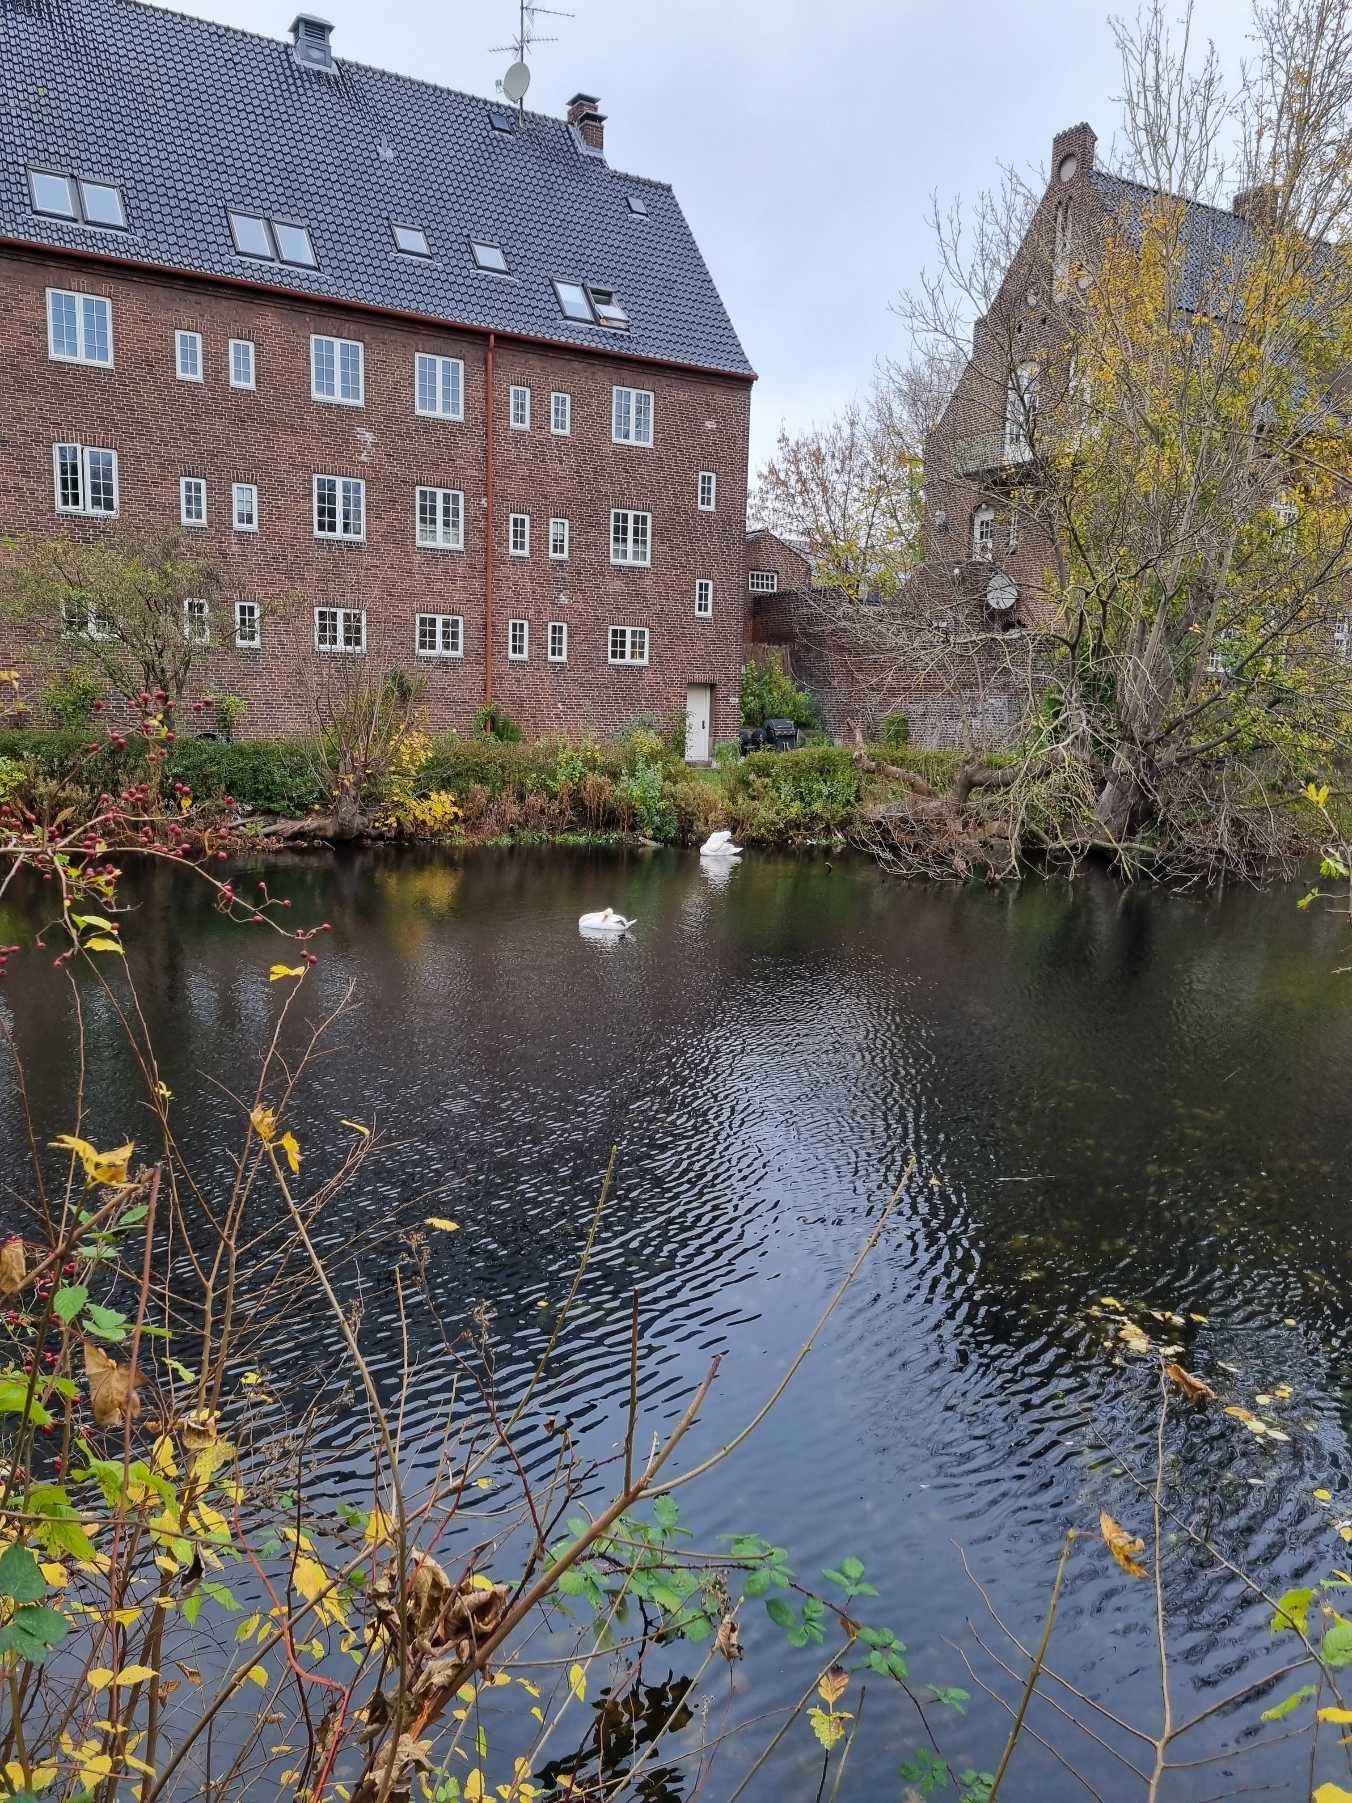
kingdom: Animalia
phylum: Chordata
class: Aves
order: Anseriformes
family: Anatidae
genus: Cygnus
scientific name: Cygnus olor
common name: Knopsvane
